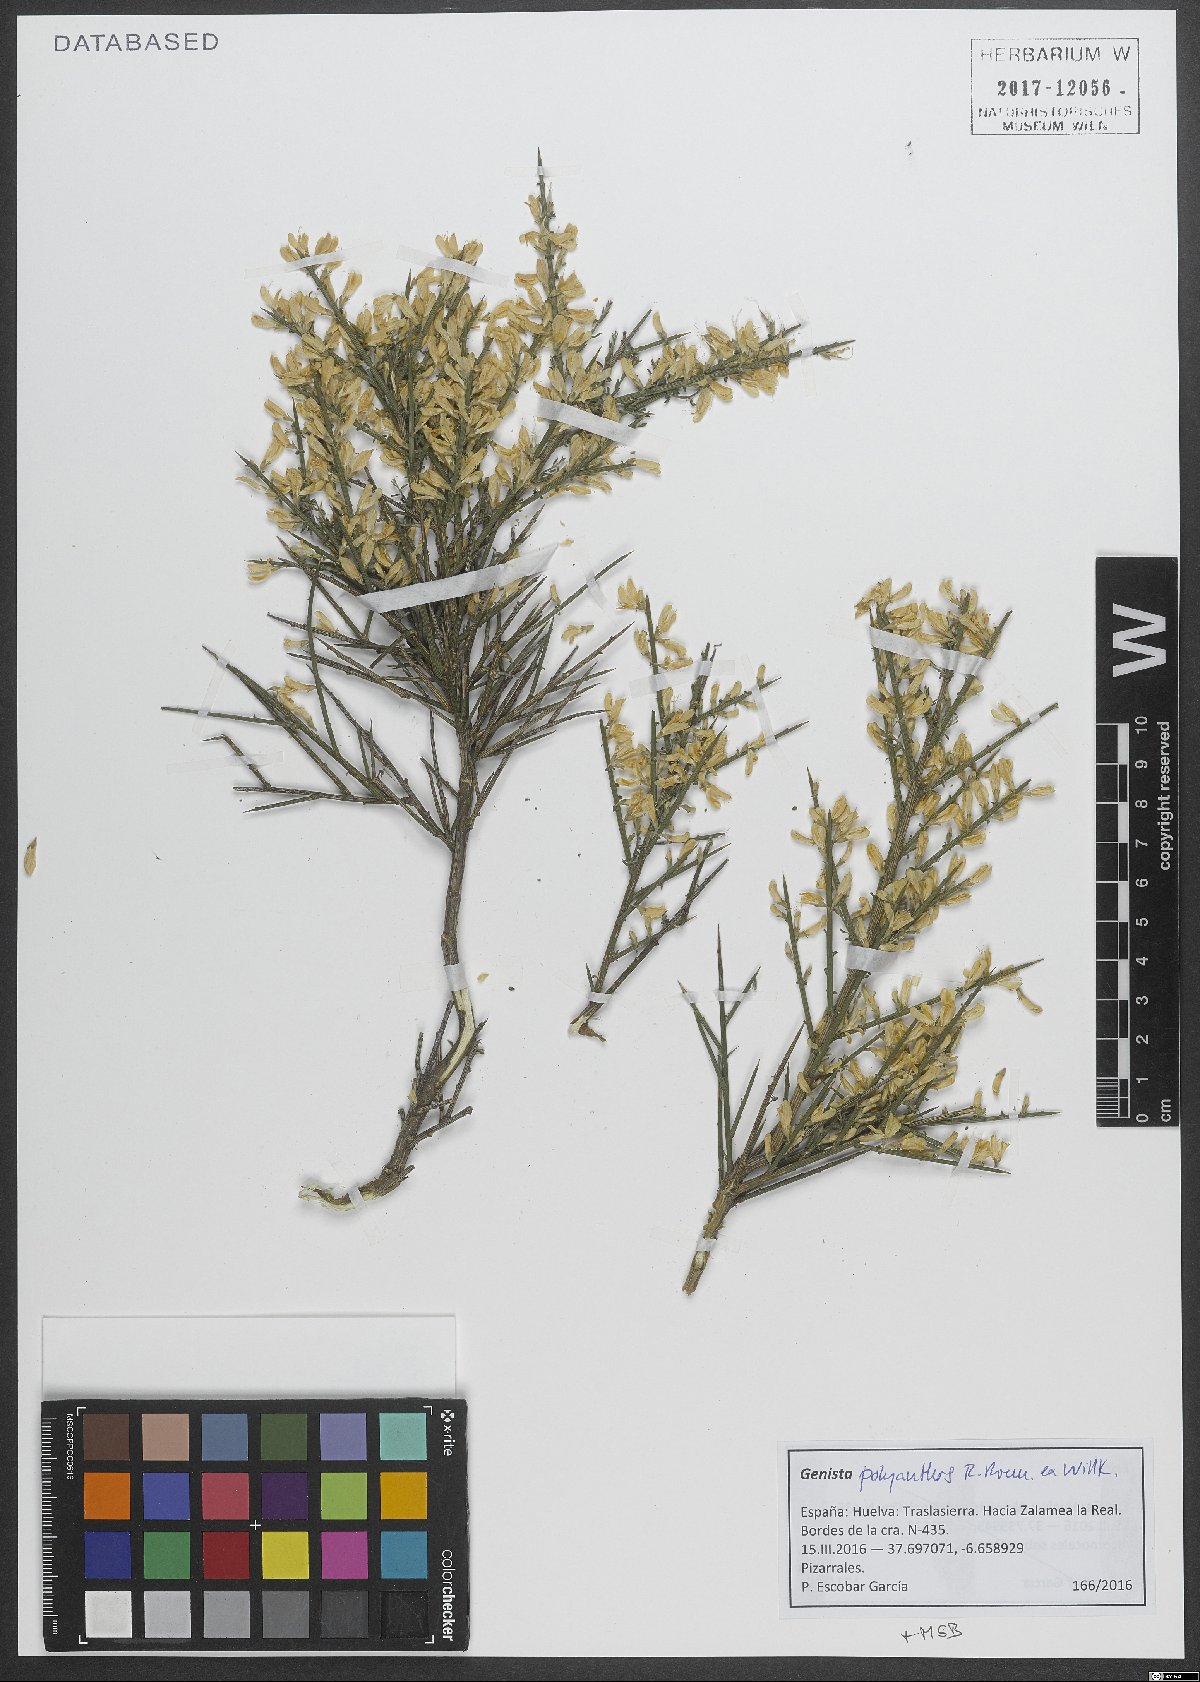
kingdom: Plantae
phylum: Tracheophyta
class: Magnoliopsida
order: Fabales
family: Fabaceae
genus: Genista
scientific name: Genista polyanthos
